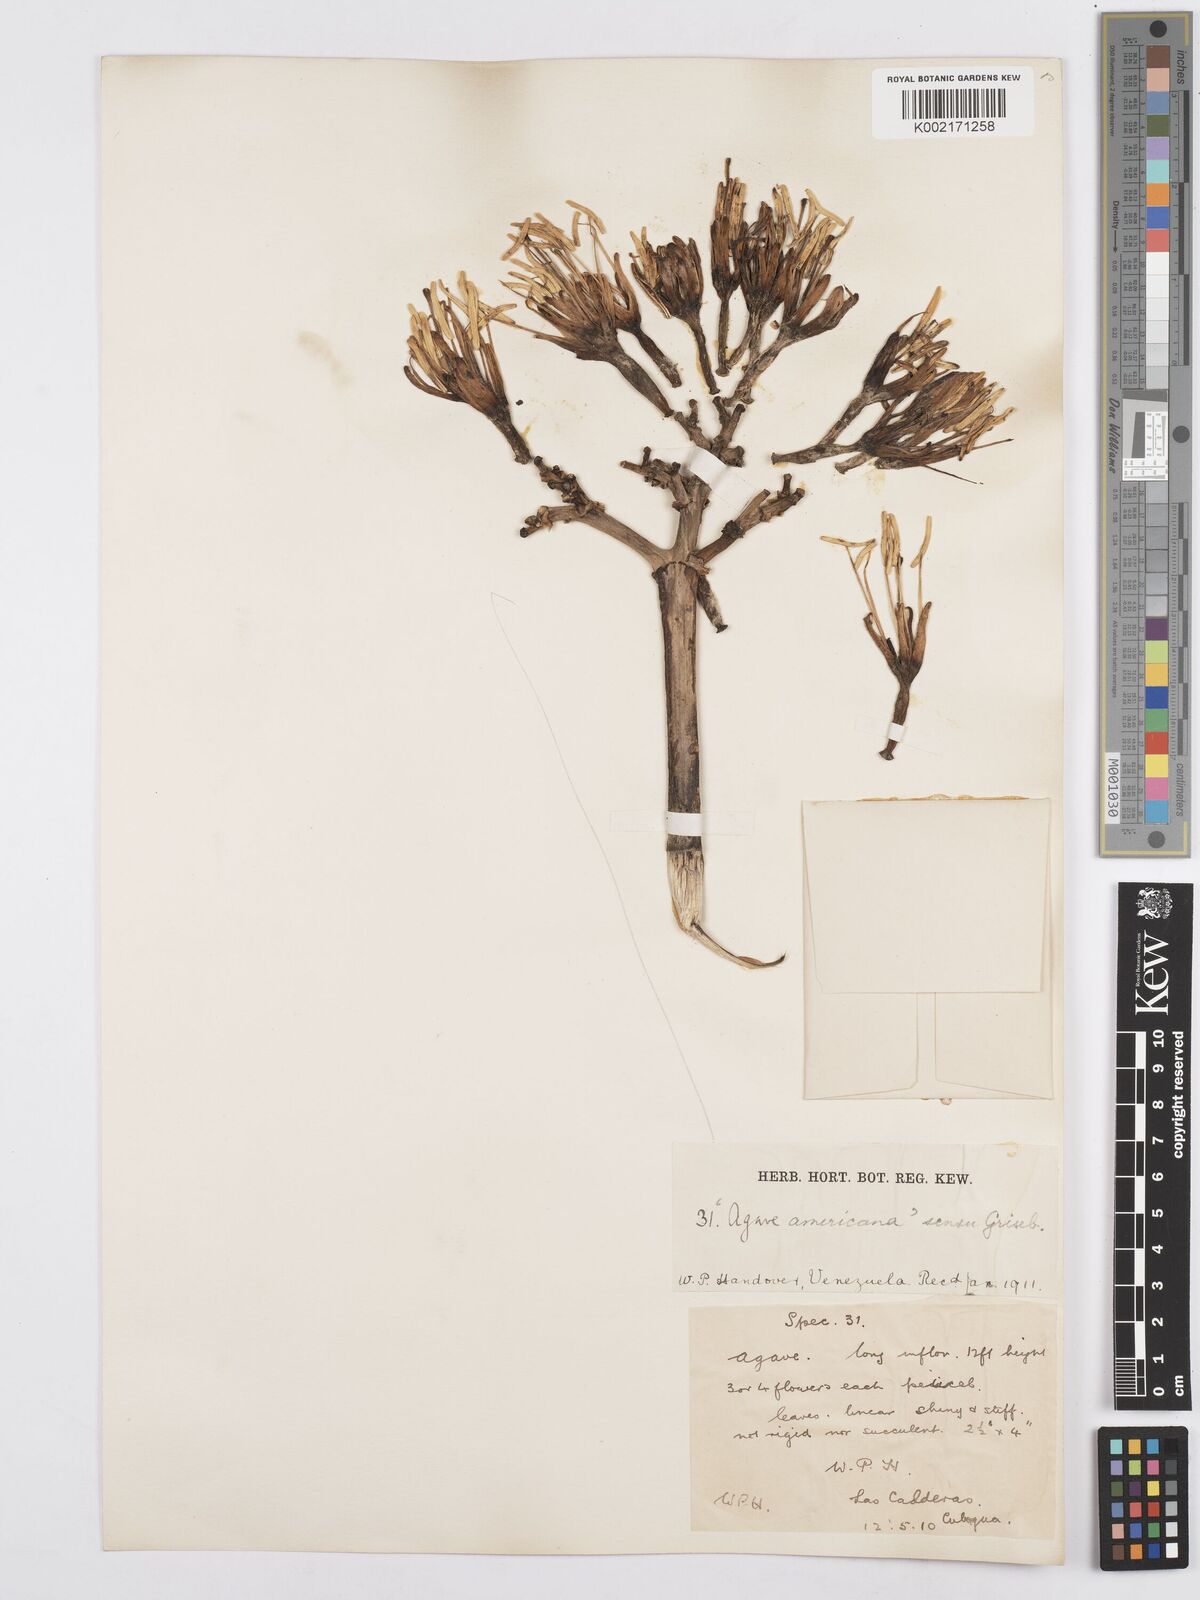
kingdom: Plantae
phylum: Tracheophyta
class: Liliopsida
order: Asparagales
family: Asparagaceae
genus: Agave
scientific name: Agave
